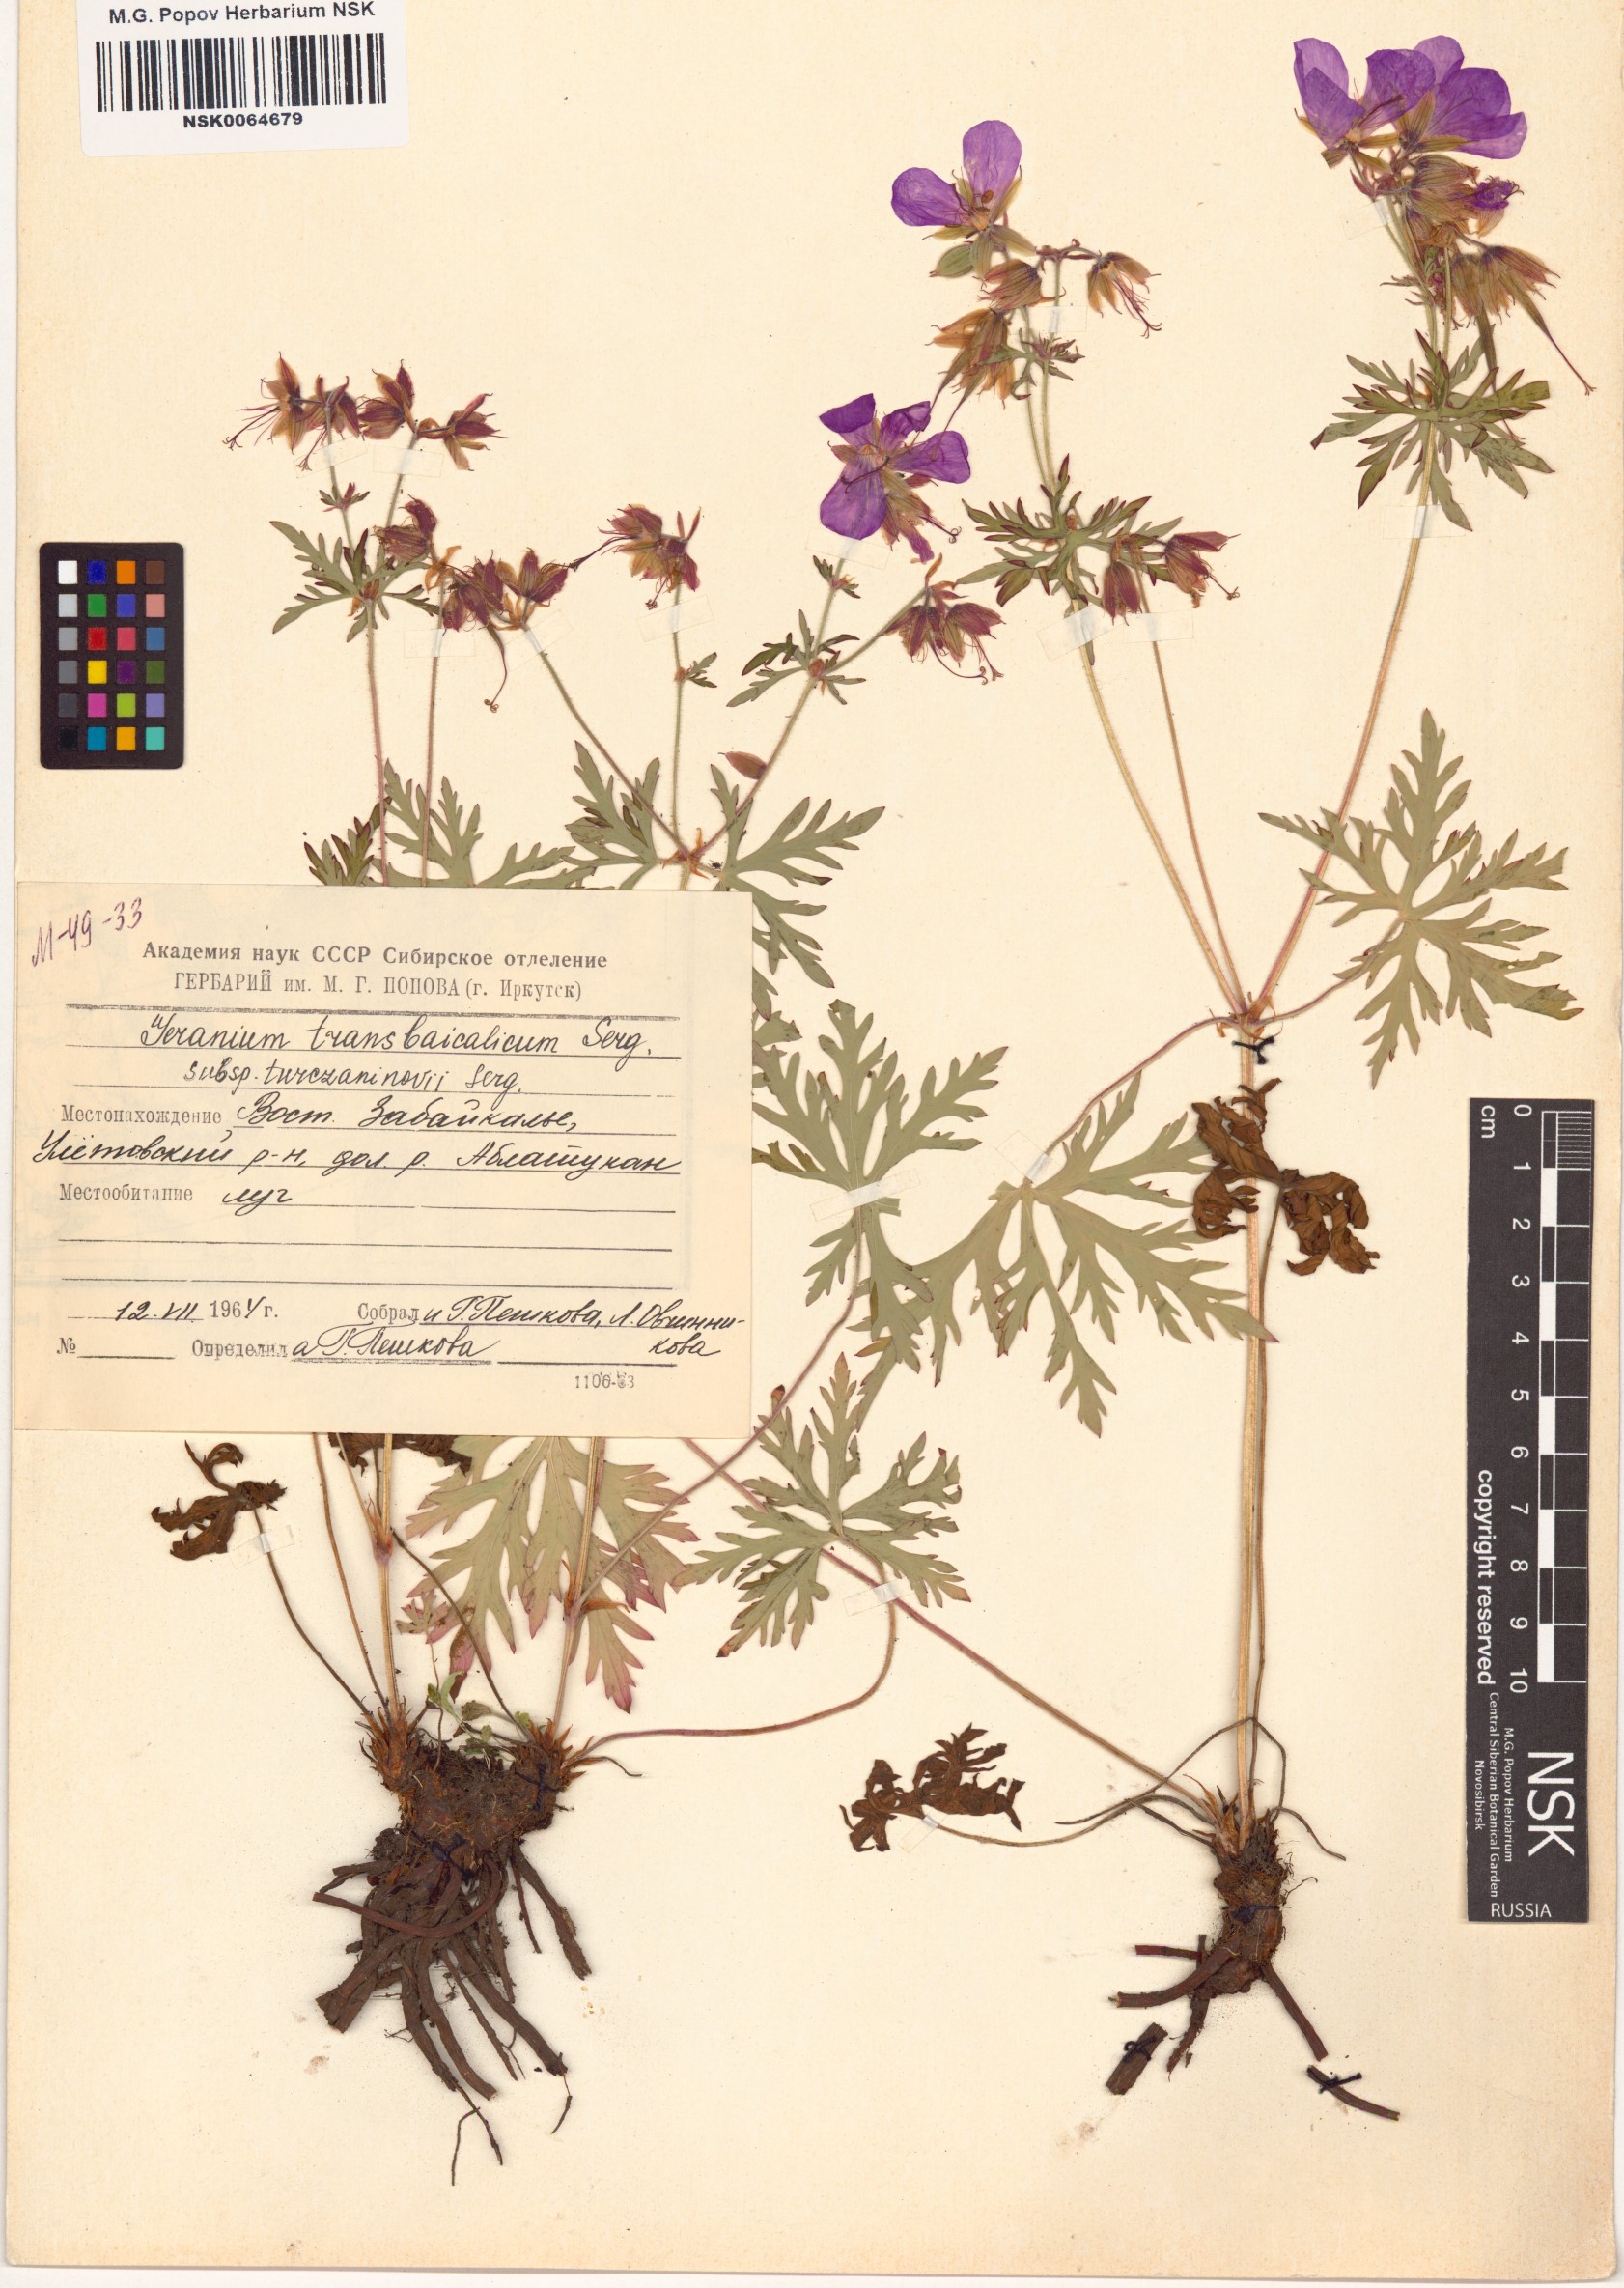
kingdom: Plantae
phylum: Tracheophyta
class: Magnoliopsida
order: Geraniales
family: Geraniaceae
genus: Geranium
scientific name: Geranium pratense
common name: Meadow crane's-bill
